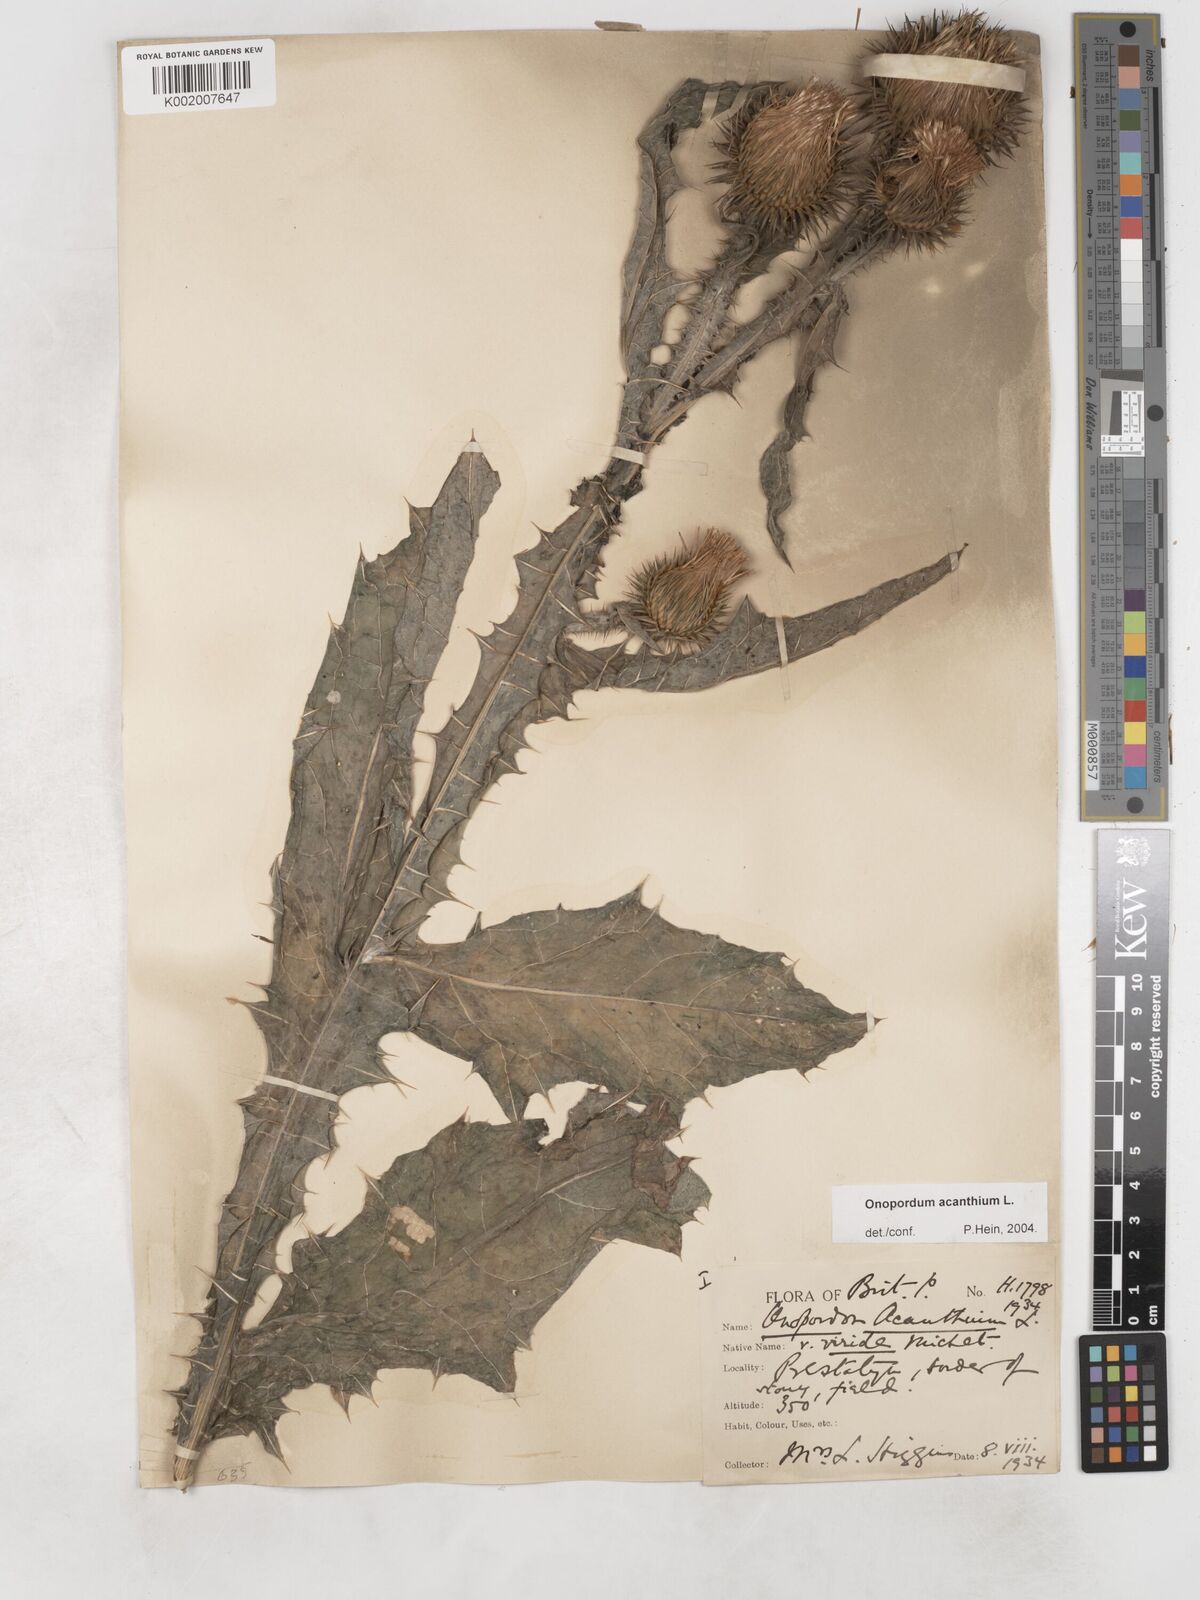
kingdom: Plantae
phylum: Tracheophyta
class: Magnoliopsida
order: Asterales
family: Asteraceae
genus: Onopordum
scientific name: Onopordum acanthium
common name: Scotch thistle
